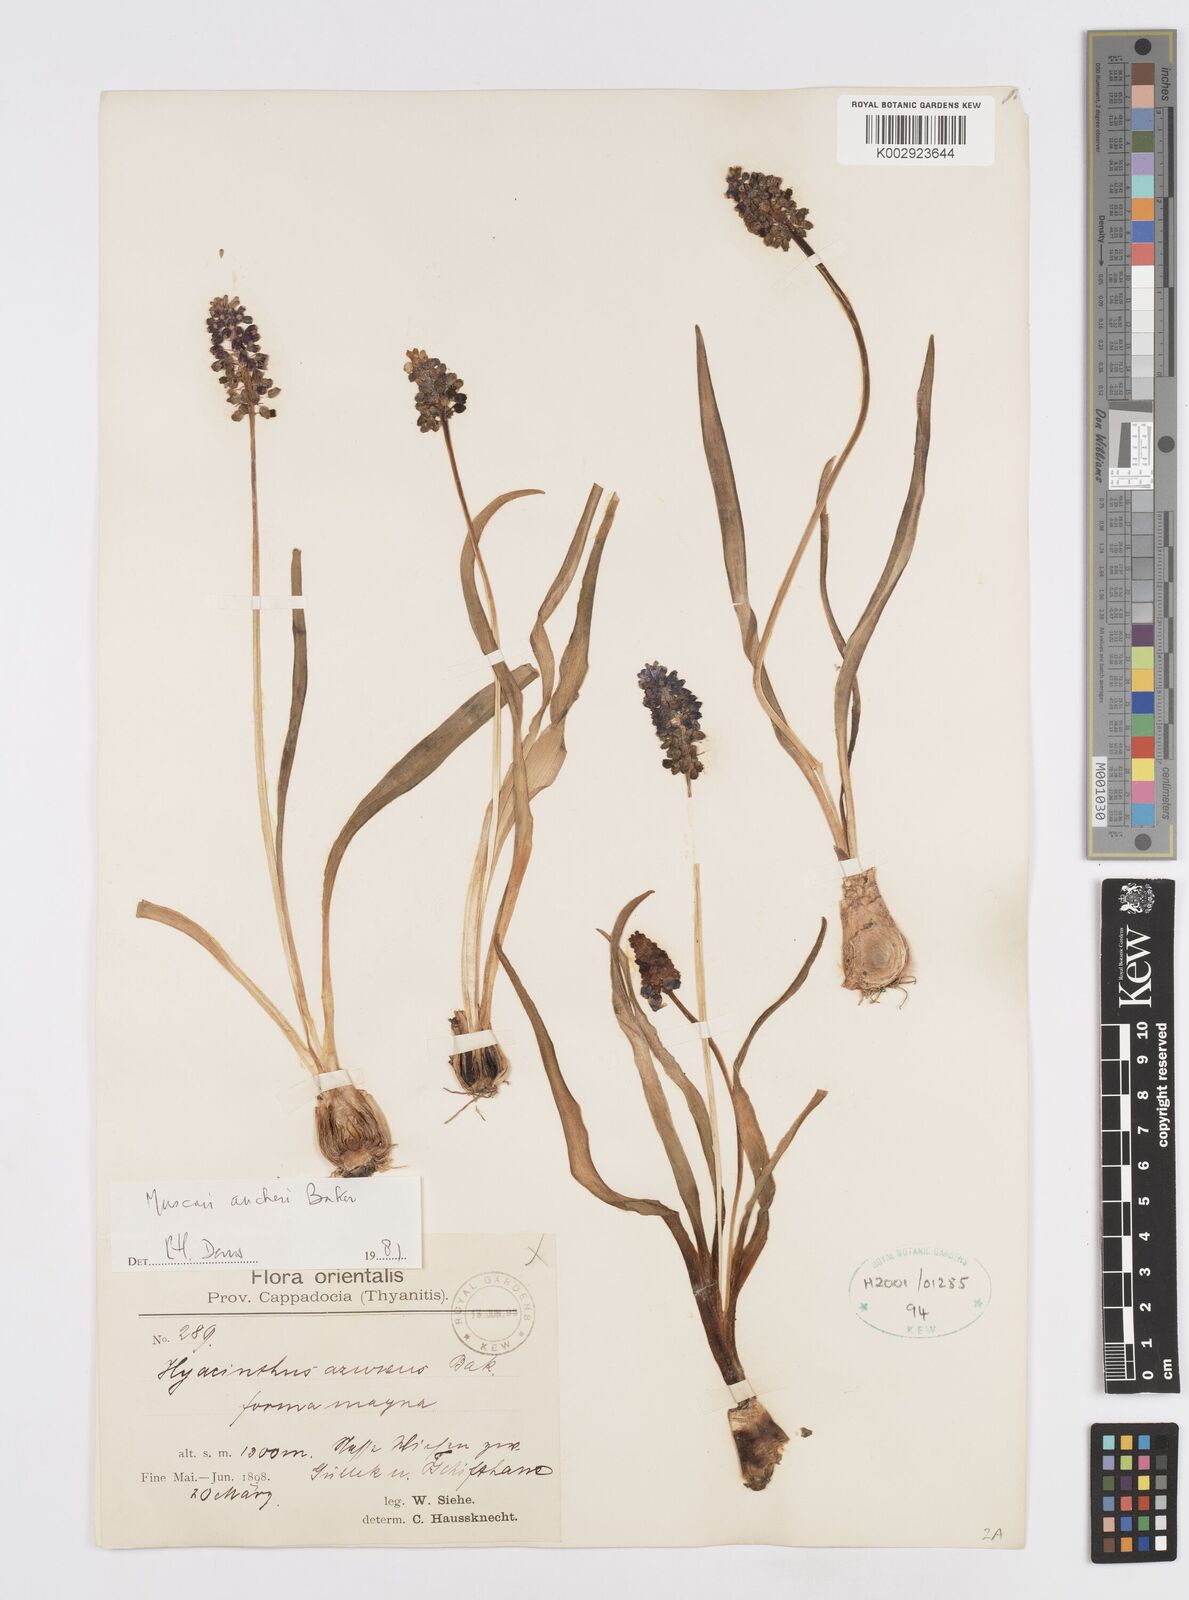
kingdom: Plantae
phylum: Tracheophyta
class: Liliopsida
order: Asparagales
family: Asparagaceae
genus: Muscari
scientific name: Muscari aucheri
